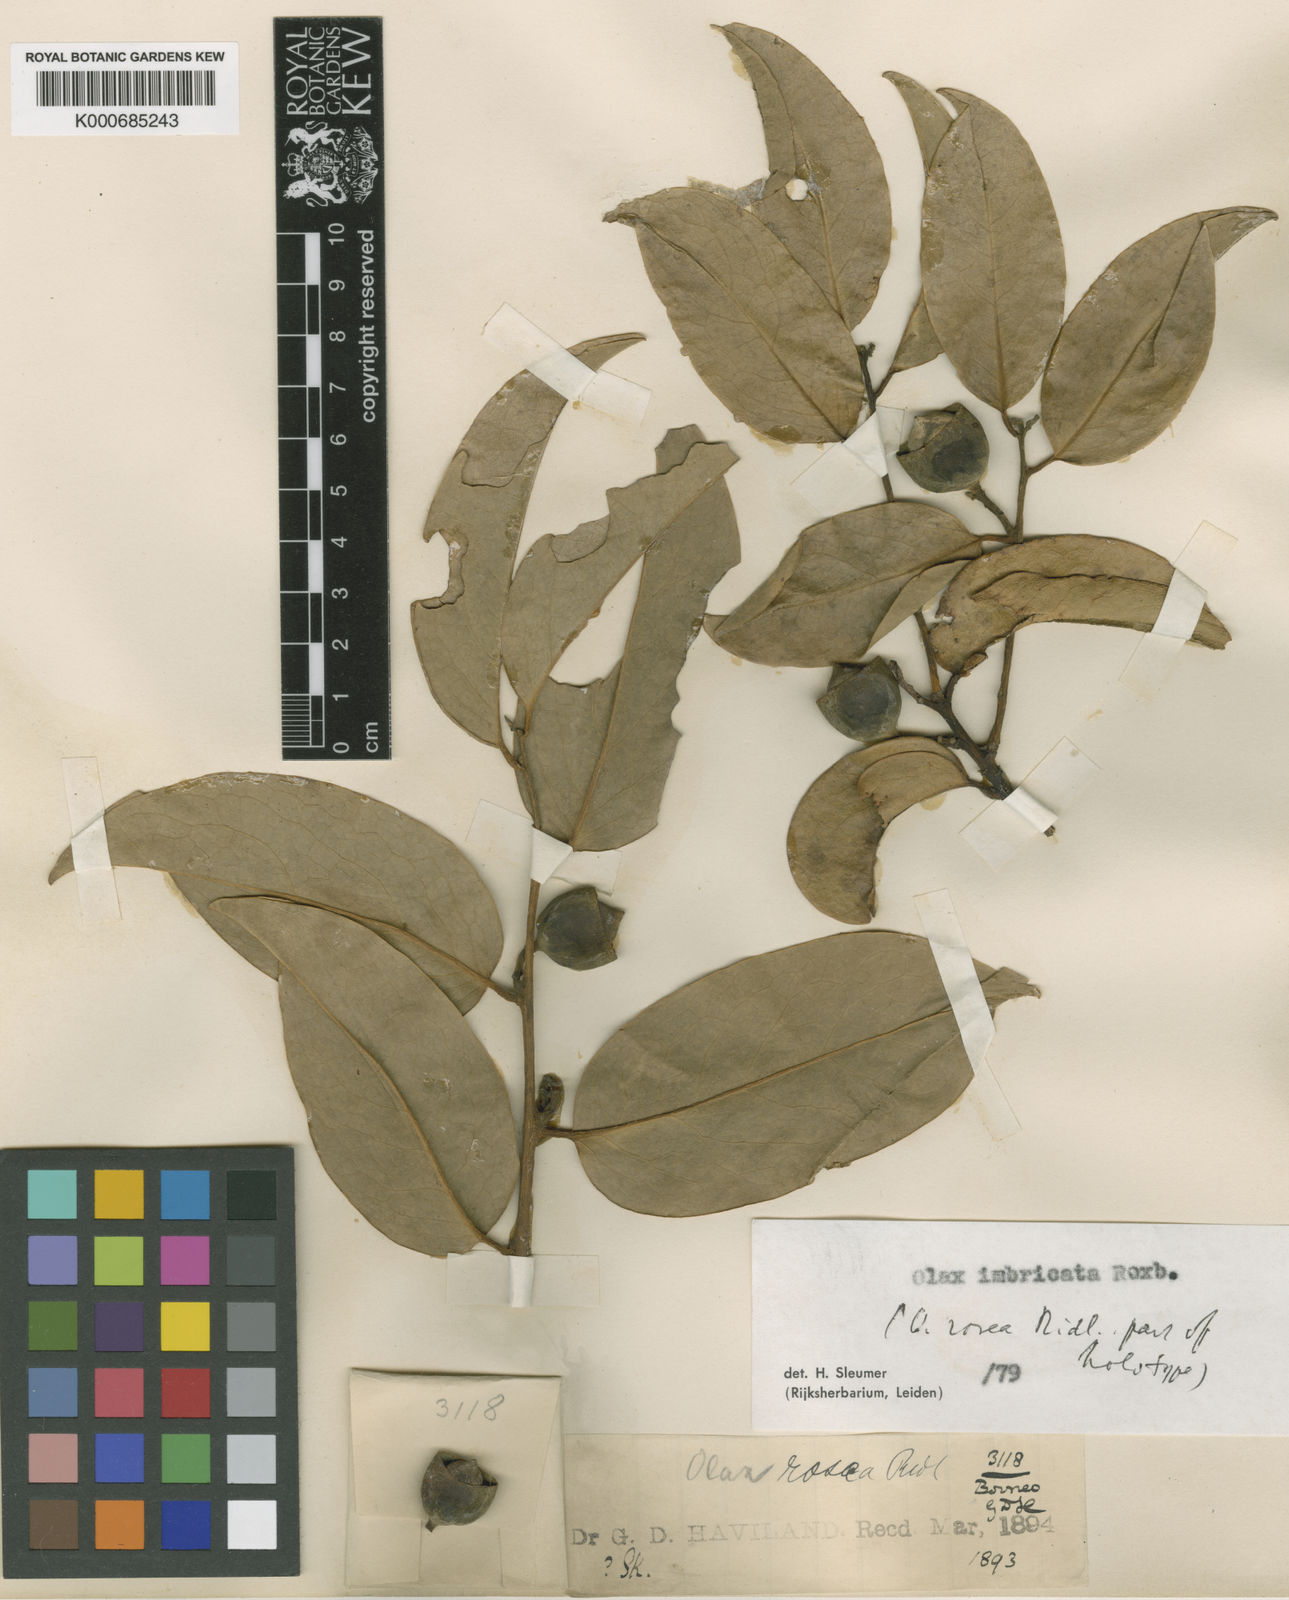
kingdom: Plantae
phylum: Tracheophyta
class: Magnoliopsida
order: Santalales
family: Olacaceae
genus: Olax
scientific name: Olax imbricata
